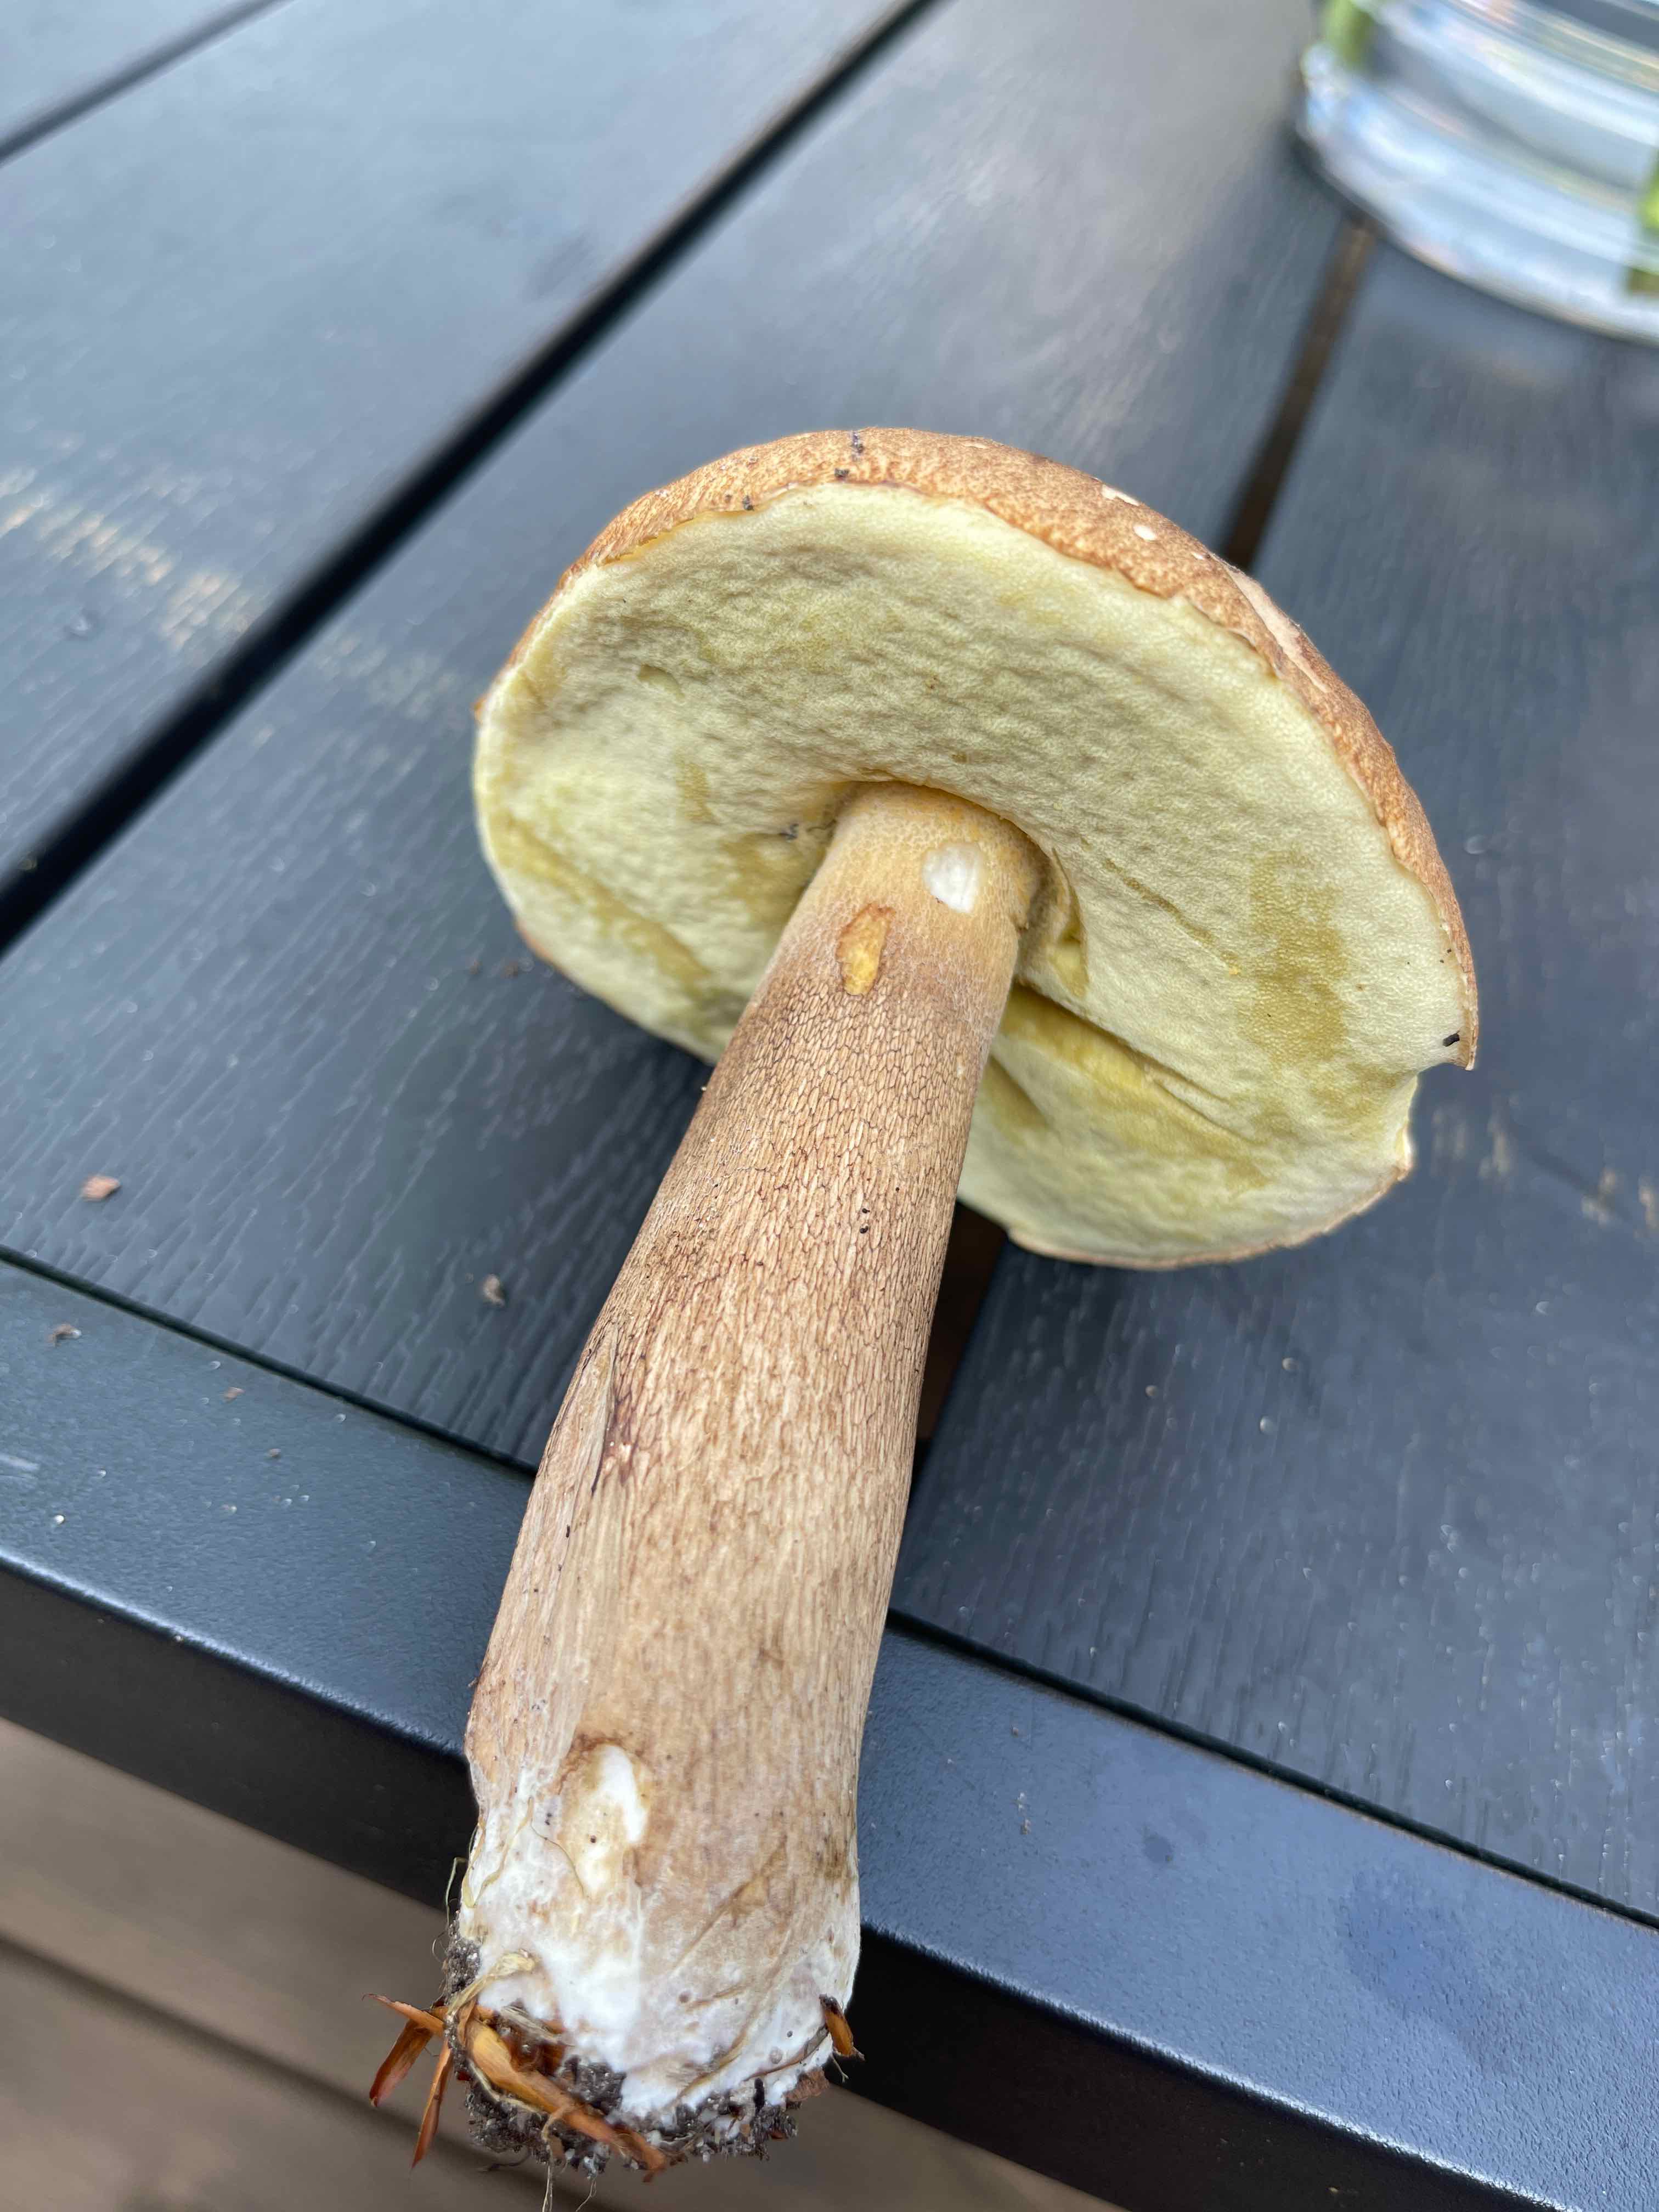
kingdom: Fungi
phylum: Basidiomycota
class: Agaricomycetes
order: Boletales
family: Boletaceae
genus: Boletus
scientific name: Boletus reticulatus
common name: sommer-rørhat
